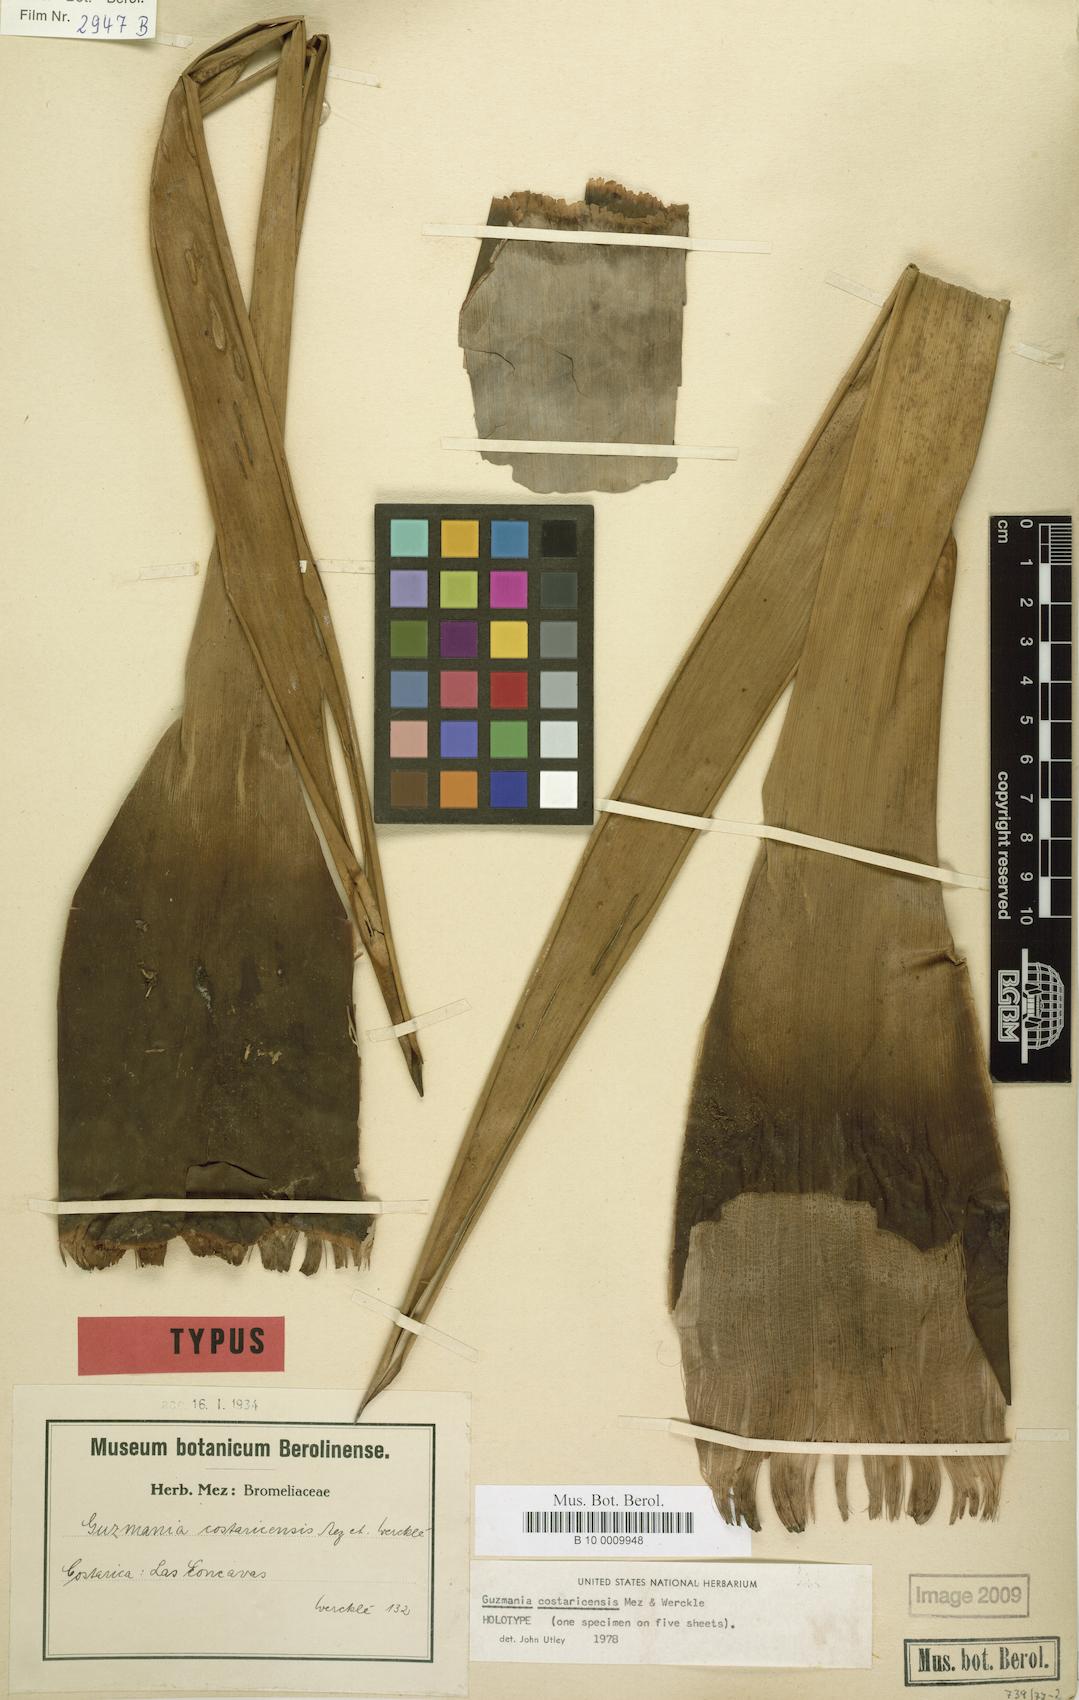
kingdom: Plantae
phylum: Tracheophyta
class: Liliopsida
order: Poales
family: Bromeliaceae
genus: Guzmania
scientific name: Guzmania condensata
